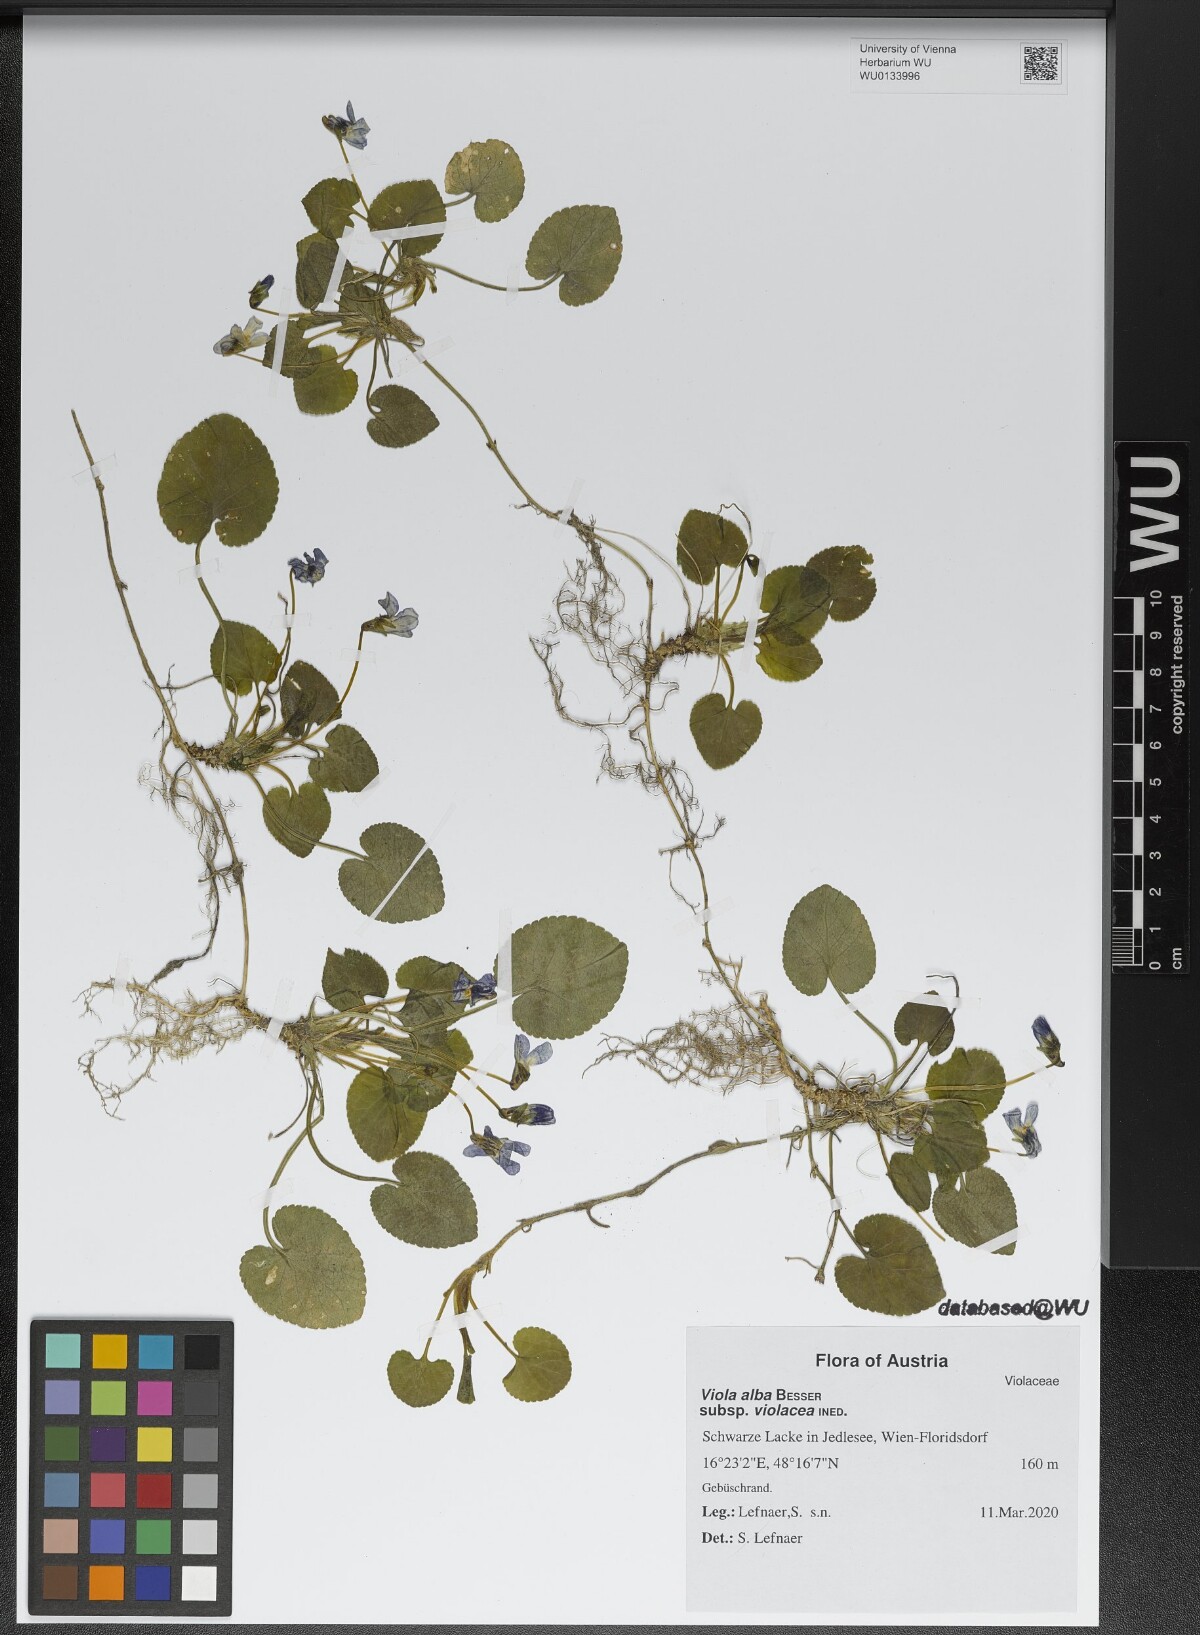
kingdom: Plantae
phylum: Tracheophyta
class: Magnoliopsida
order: Malpighiales
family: Violaceae
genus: Viola
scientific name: Viola alba
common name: White violet
